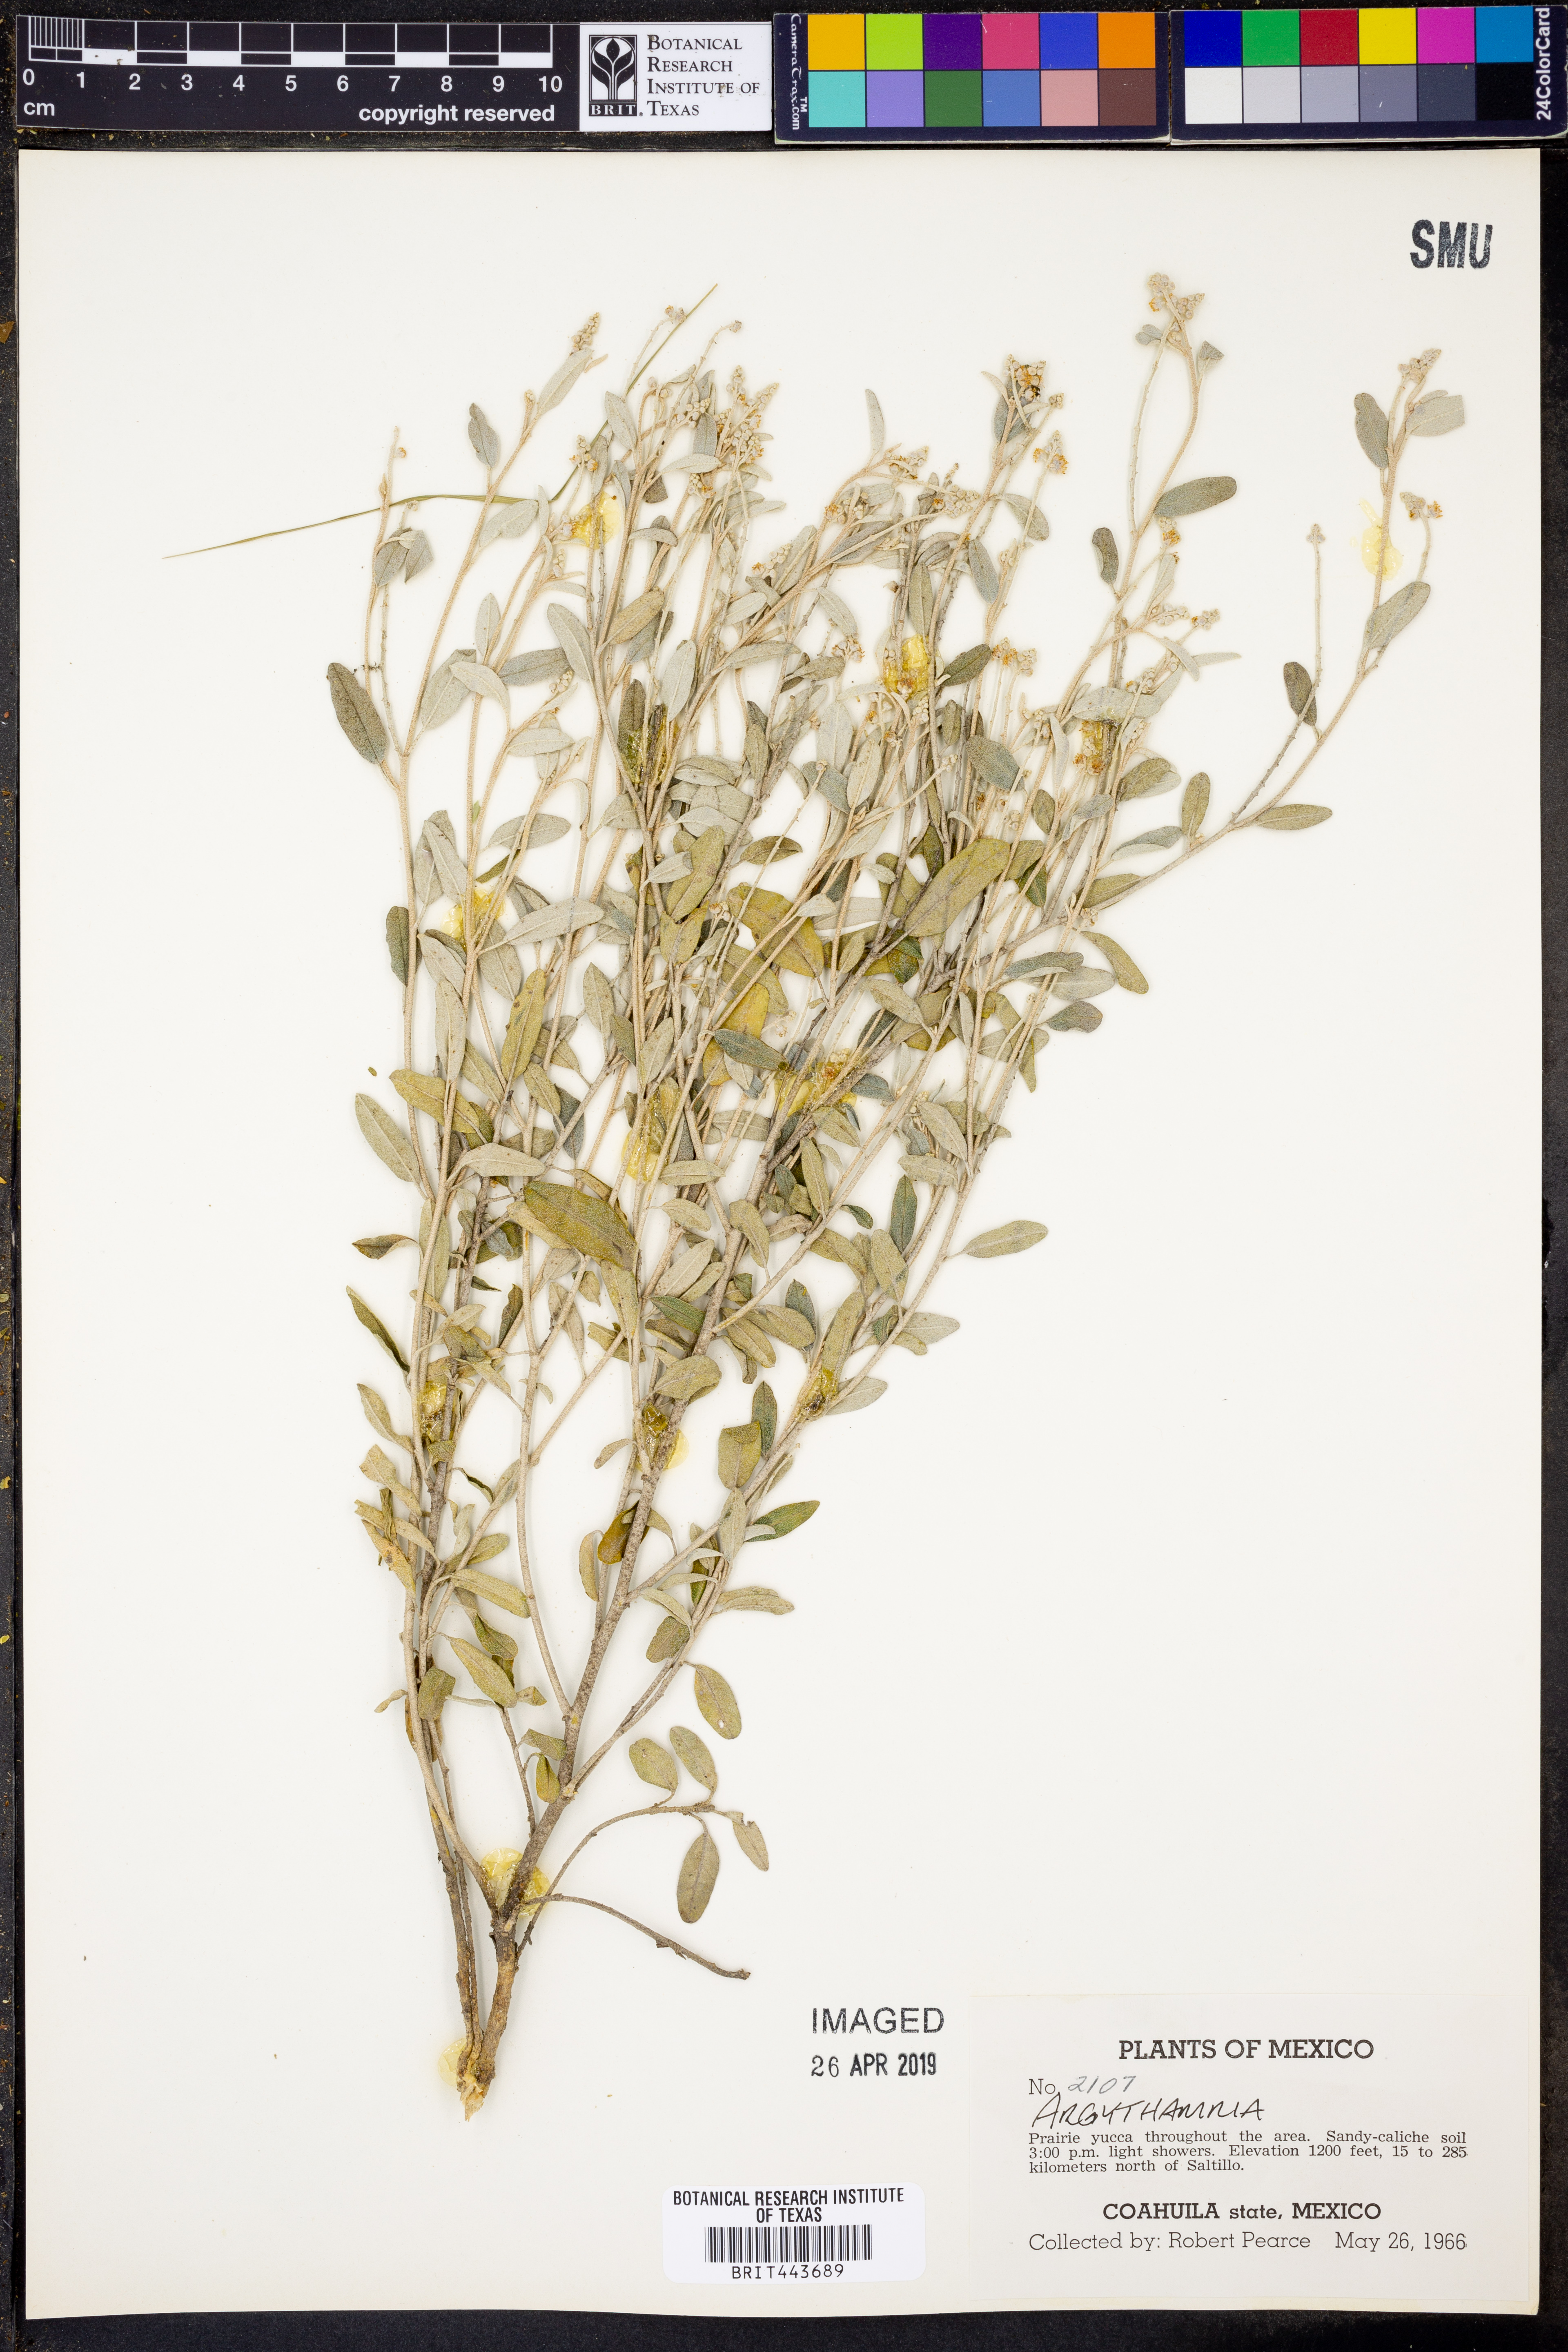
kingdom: Plantae
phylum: Tracheophyta
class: Magnoliopsida
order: Malpighiales
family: Euphorbiaceae
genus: Argythamnia
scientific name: Argythamnia
